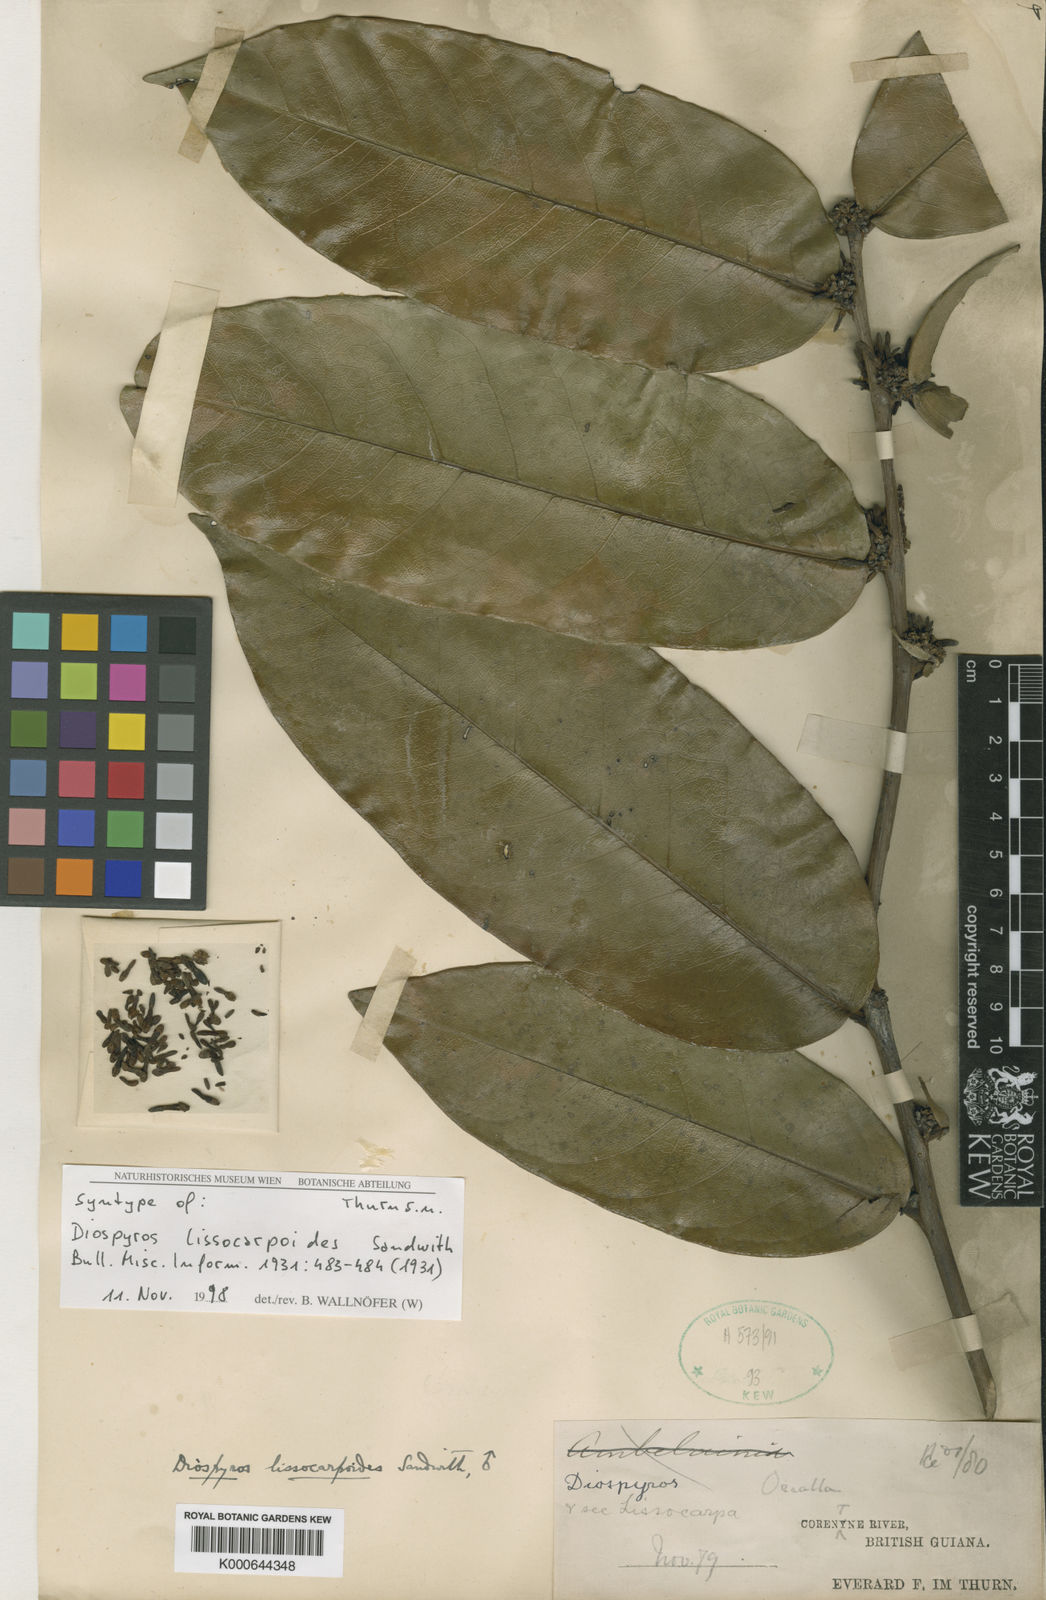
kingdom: Plantae
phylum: Tracheophyta
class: Magnoliopsida
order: Ericales
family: Ebenaceae
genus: Diospyros
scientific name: Diospyros lissocarpoides
